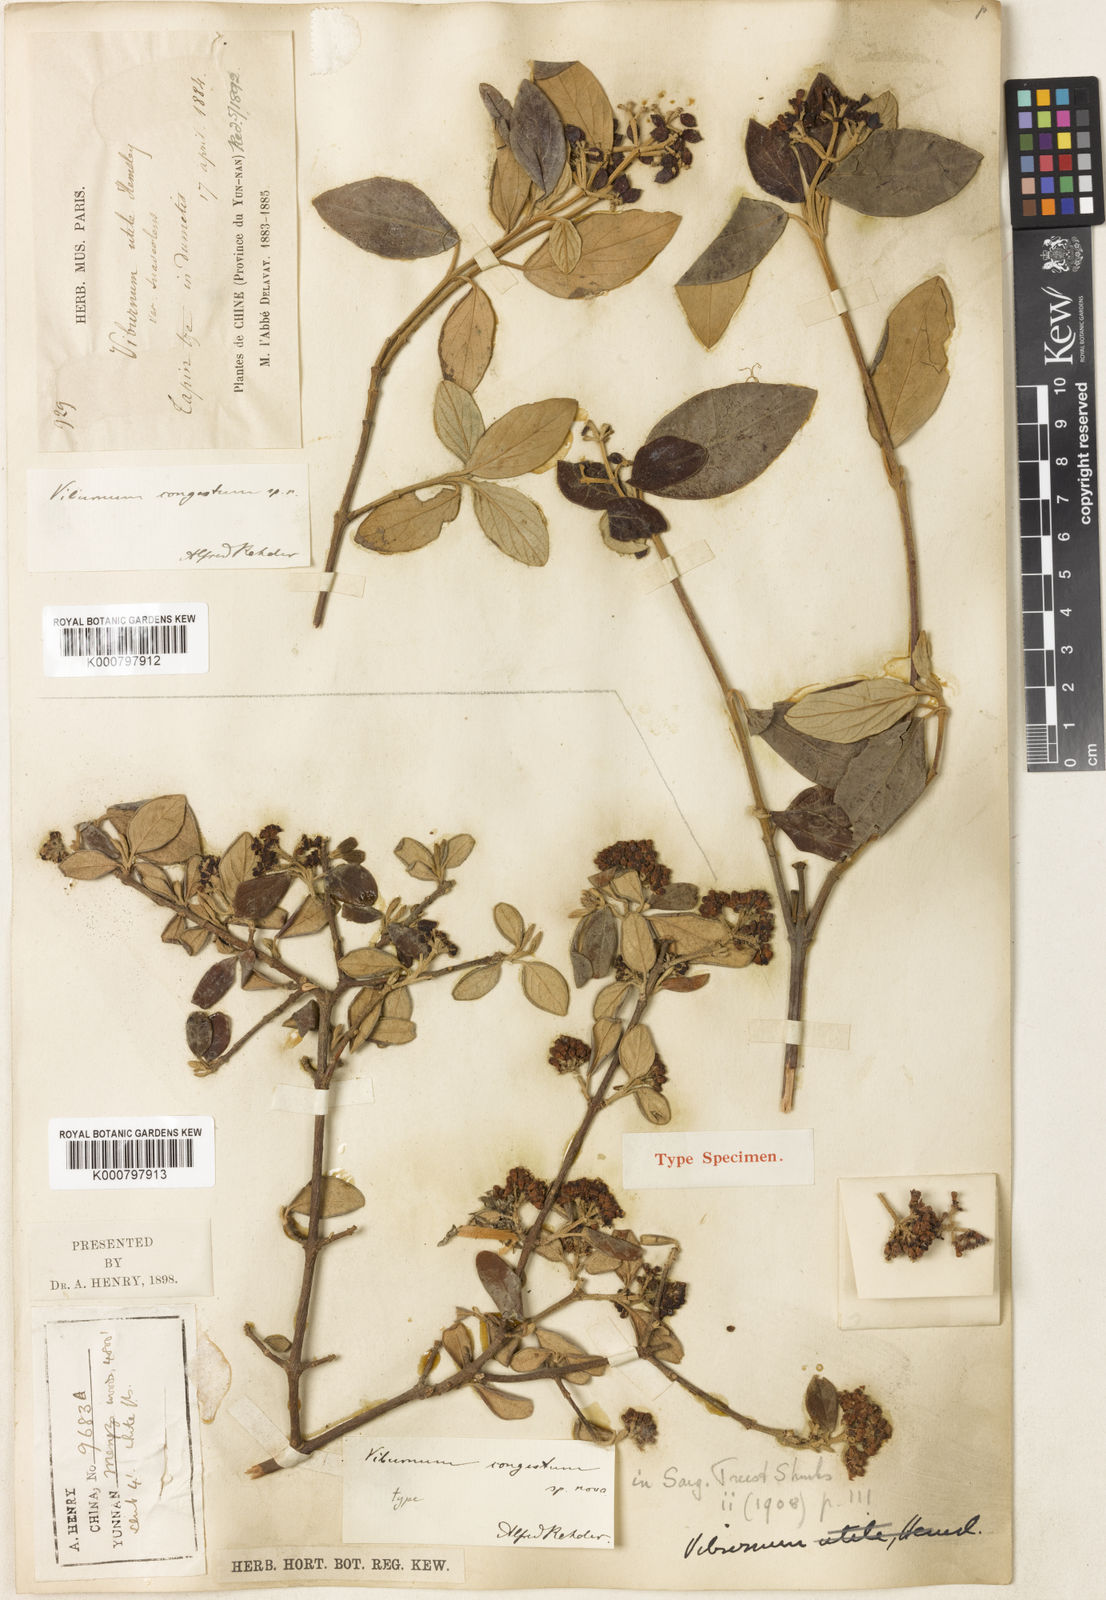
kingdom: Plantae
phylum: Tracheophyta
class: Magnoliopsida
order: Dipsacales
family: Viburnaceae
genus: Viburnum
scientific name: Viburnum congestum
